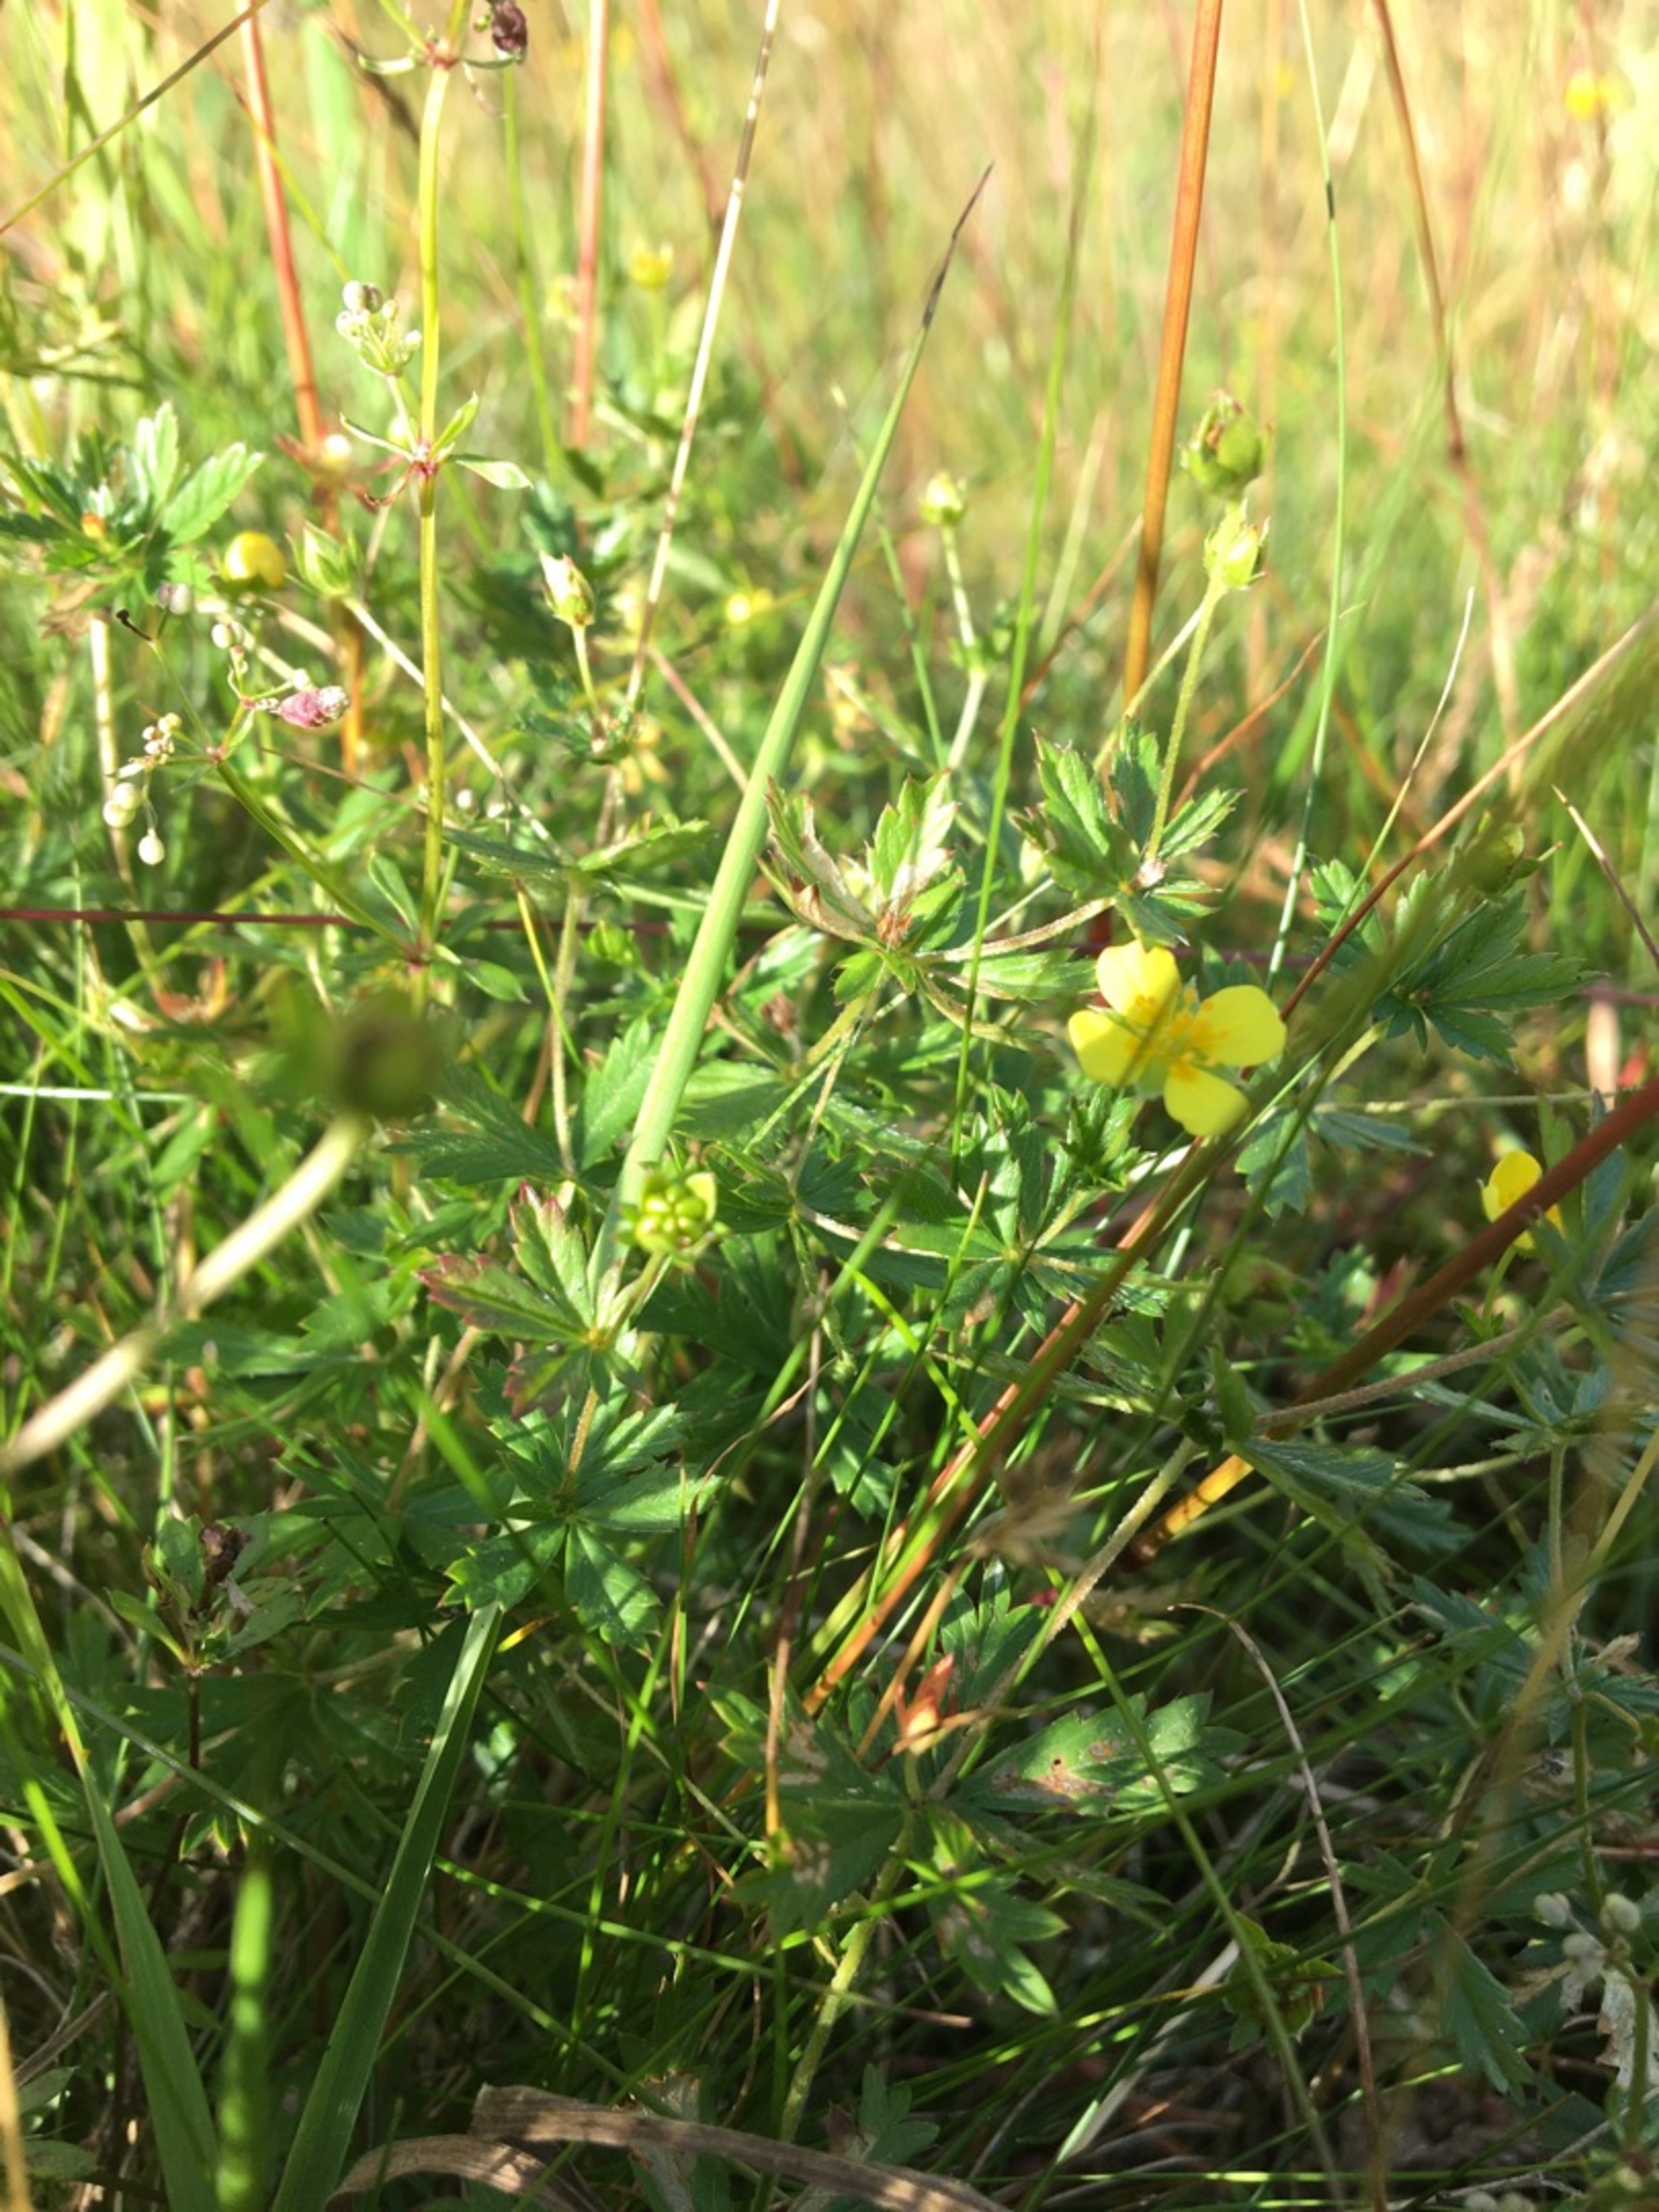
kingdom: Plantae
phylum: Tracheophyta
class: Magnoliopsida
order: Rosales
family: Rosaceae
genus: Potentilla
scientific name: Potentilla erecta
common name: Tormentil
